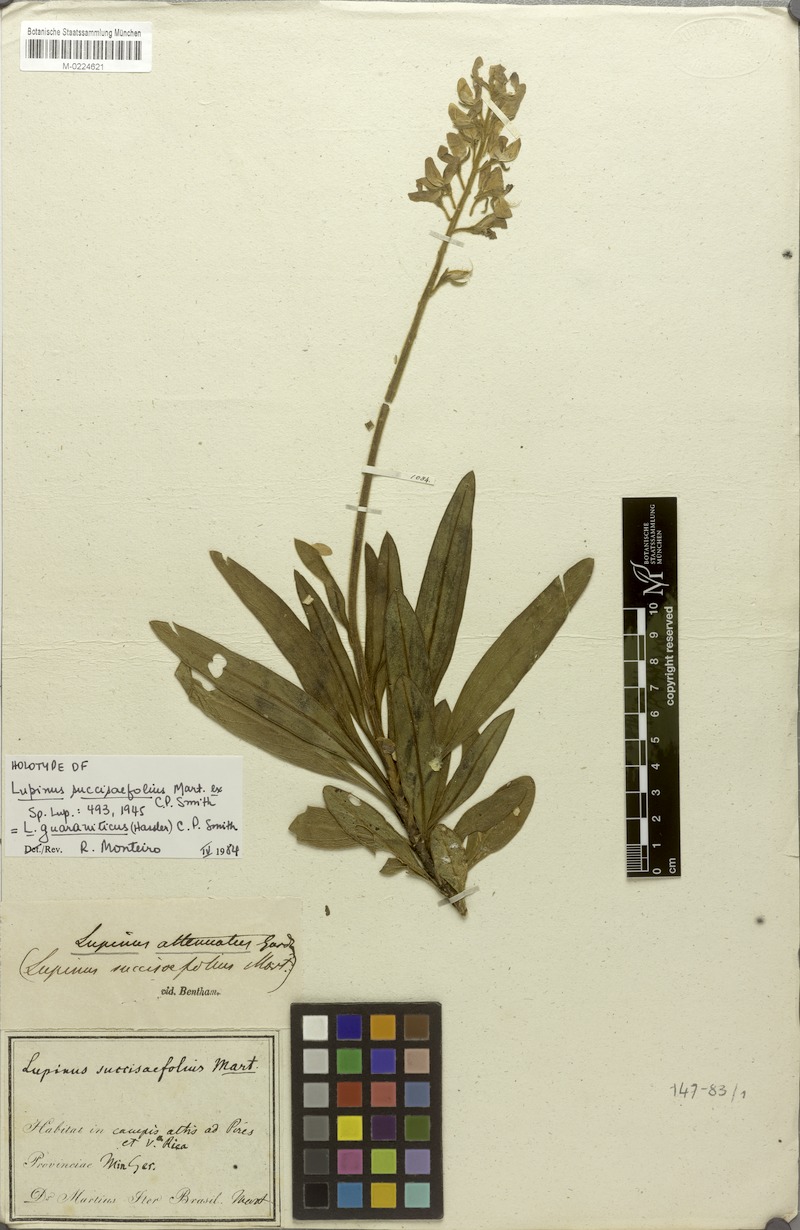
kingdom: Plantae
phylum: Tracheophyta
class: Magnoliopsida
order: Fabales
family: Fabaceae
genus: Lupinus
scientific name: Lupinus
